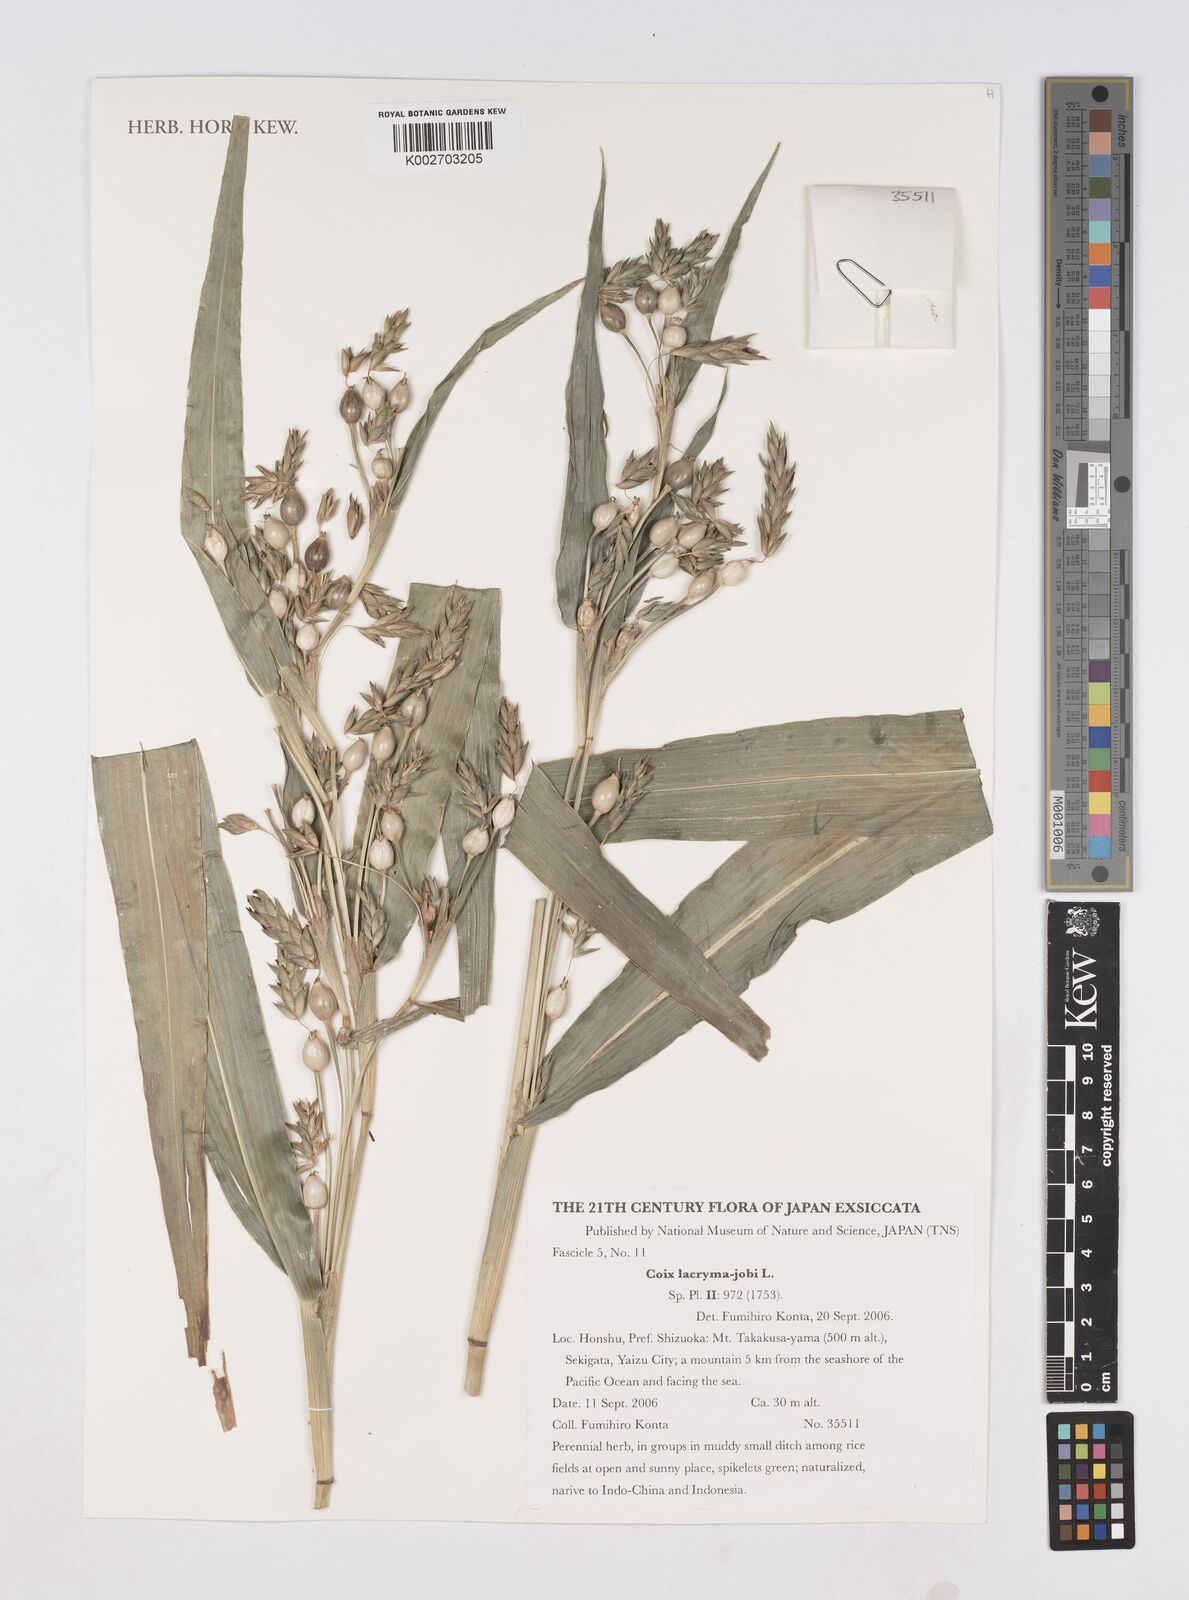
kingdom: Plantae
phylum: Tracheophyta
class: Liliopsida
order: Poales
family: Poaceae
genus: Coix
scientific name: Coix lacryma-jobi
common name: Job's tears
